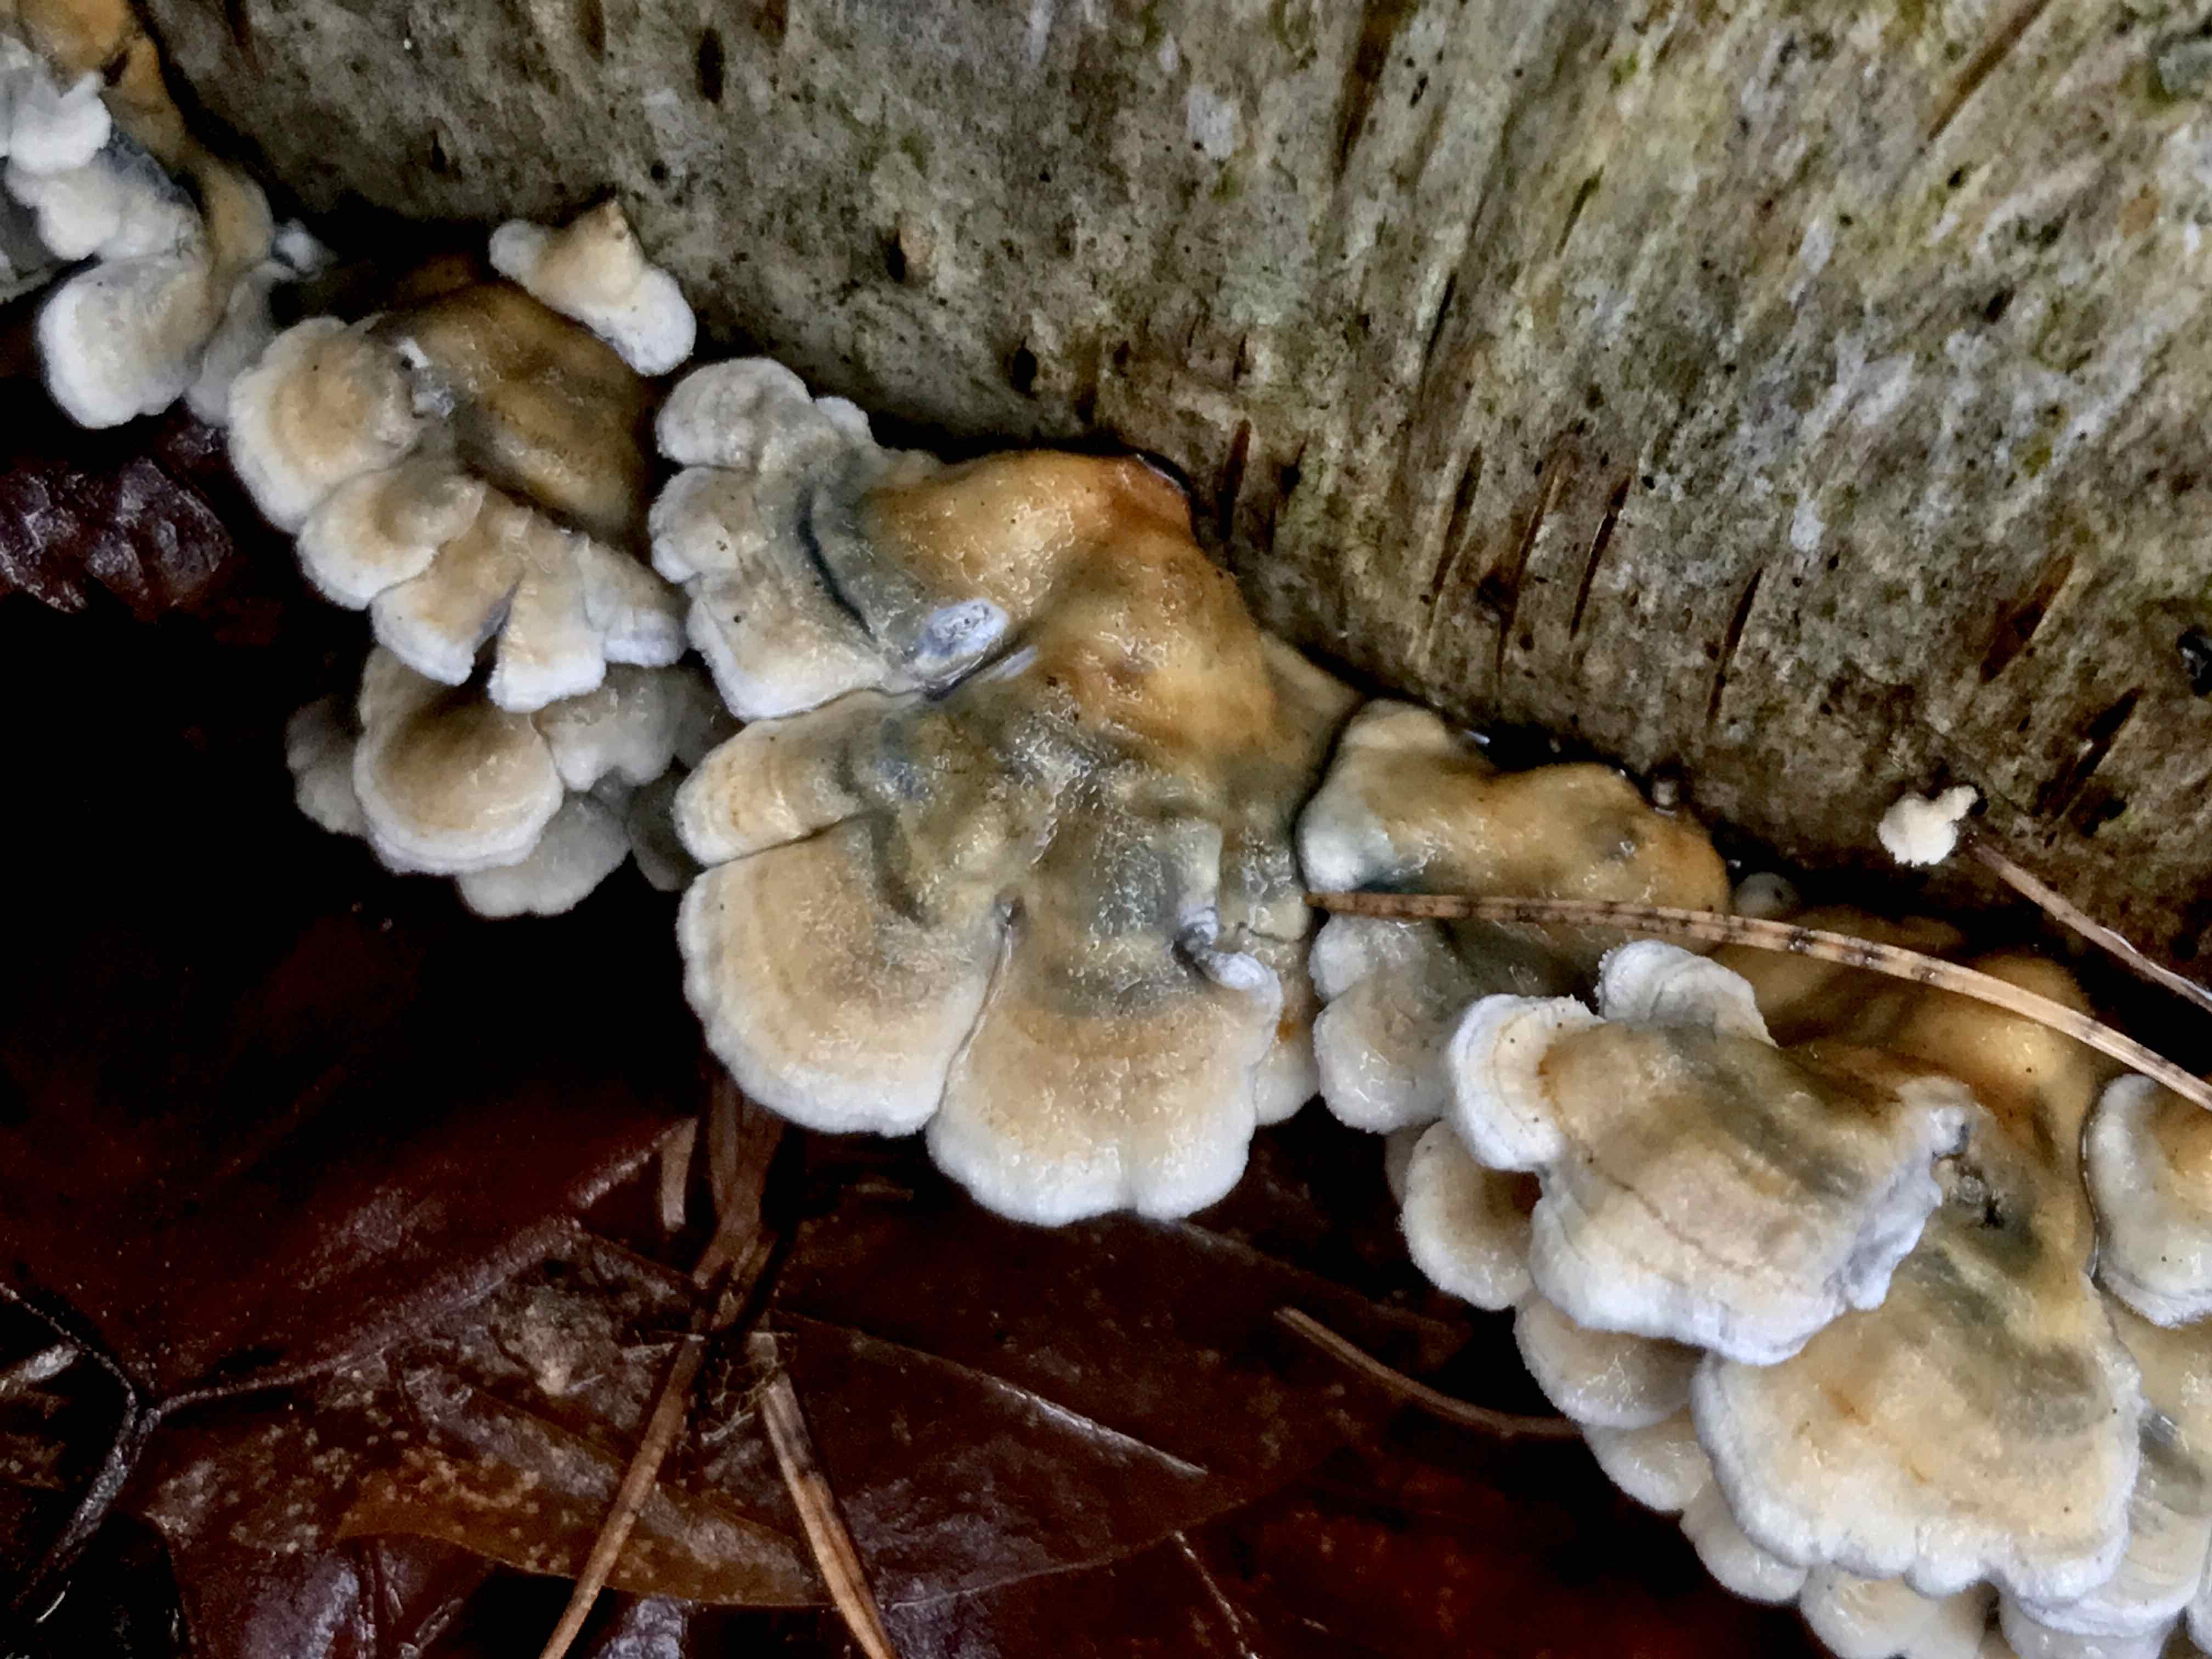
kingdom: Fungi
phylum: Basidiomycota
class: Agaricomycetes
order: Amylocorticiales
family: Amylocorticiaceae
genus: Plicaturopsis
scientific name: Plicaturopsis crispa
